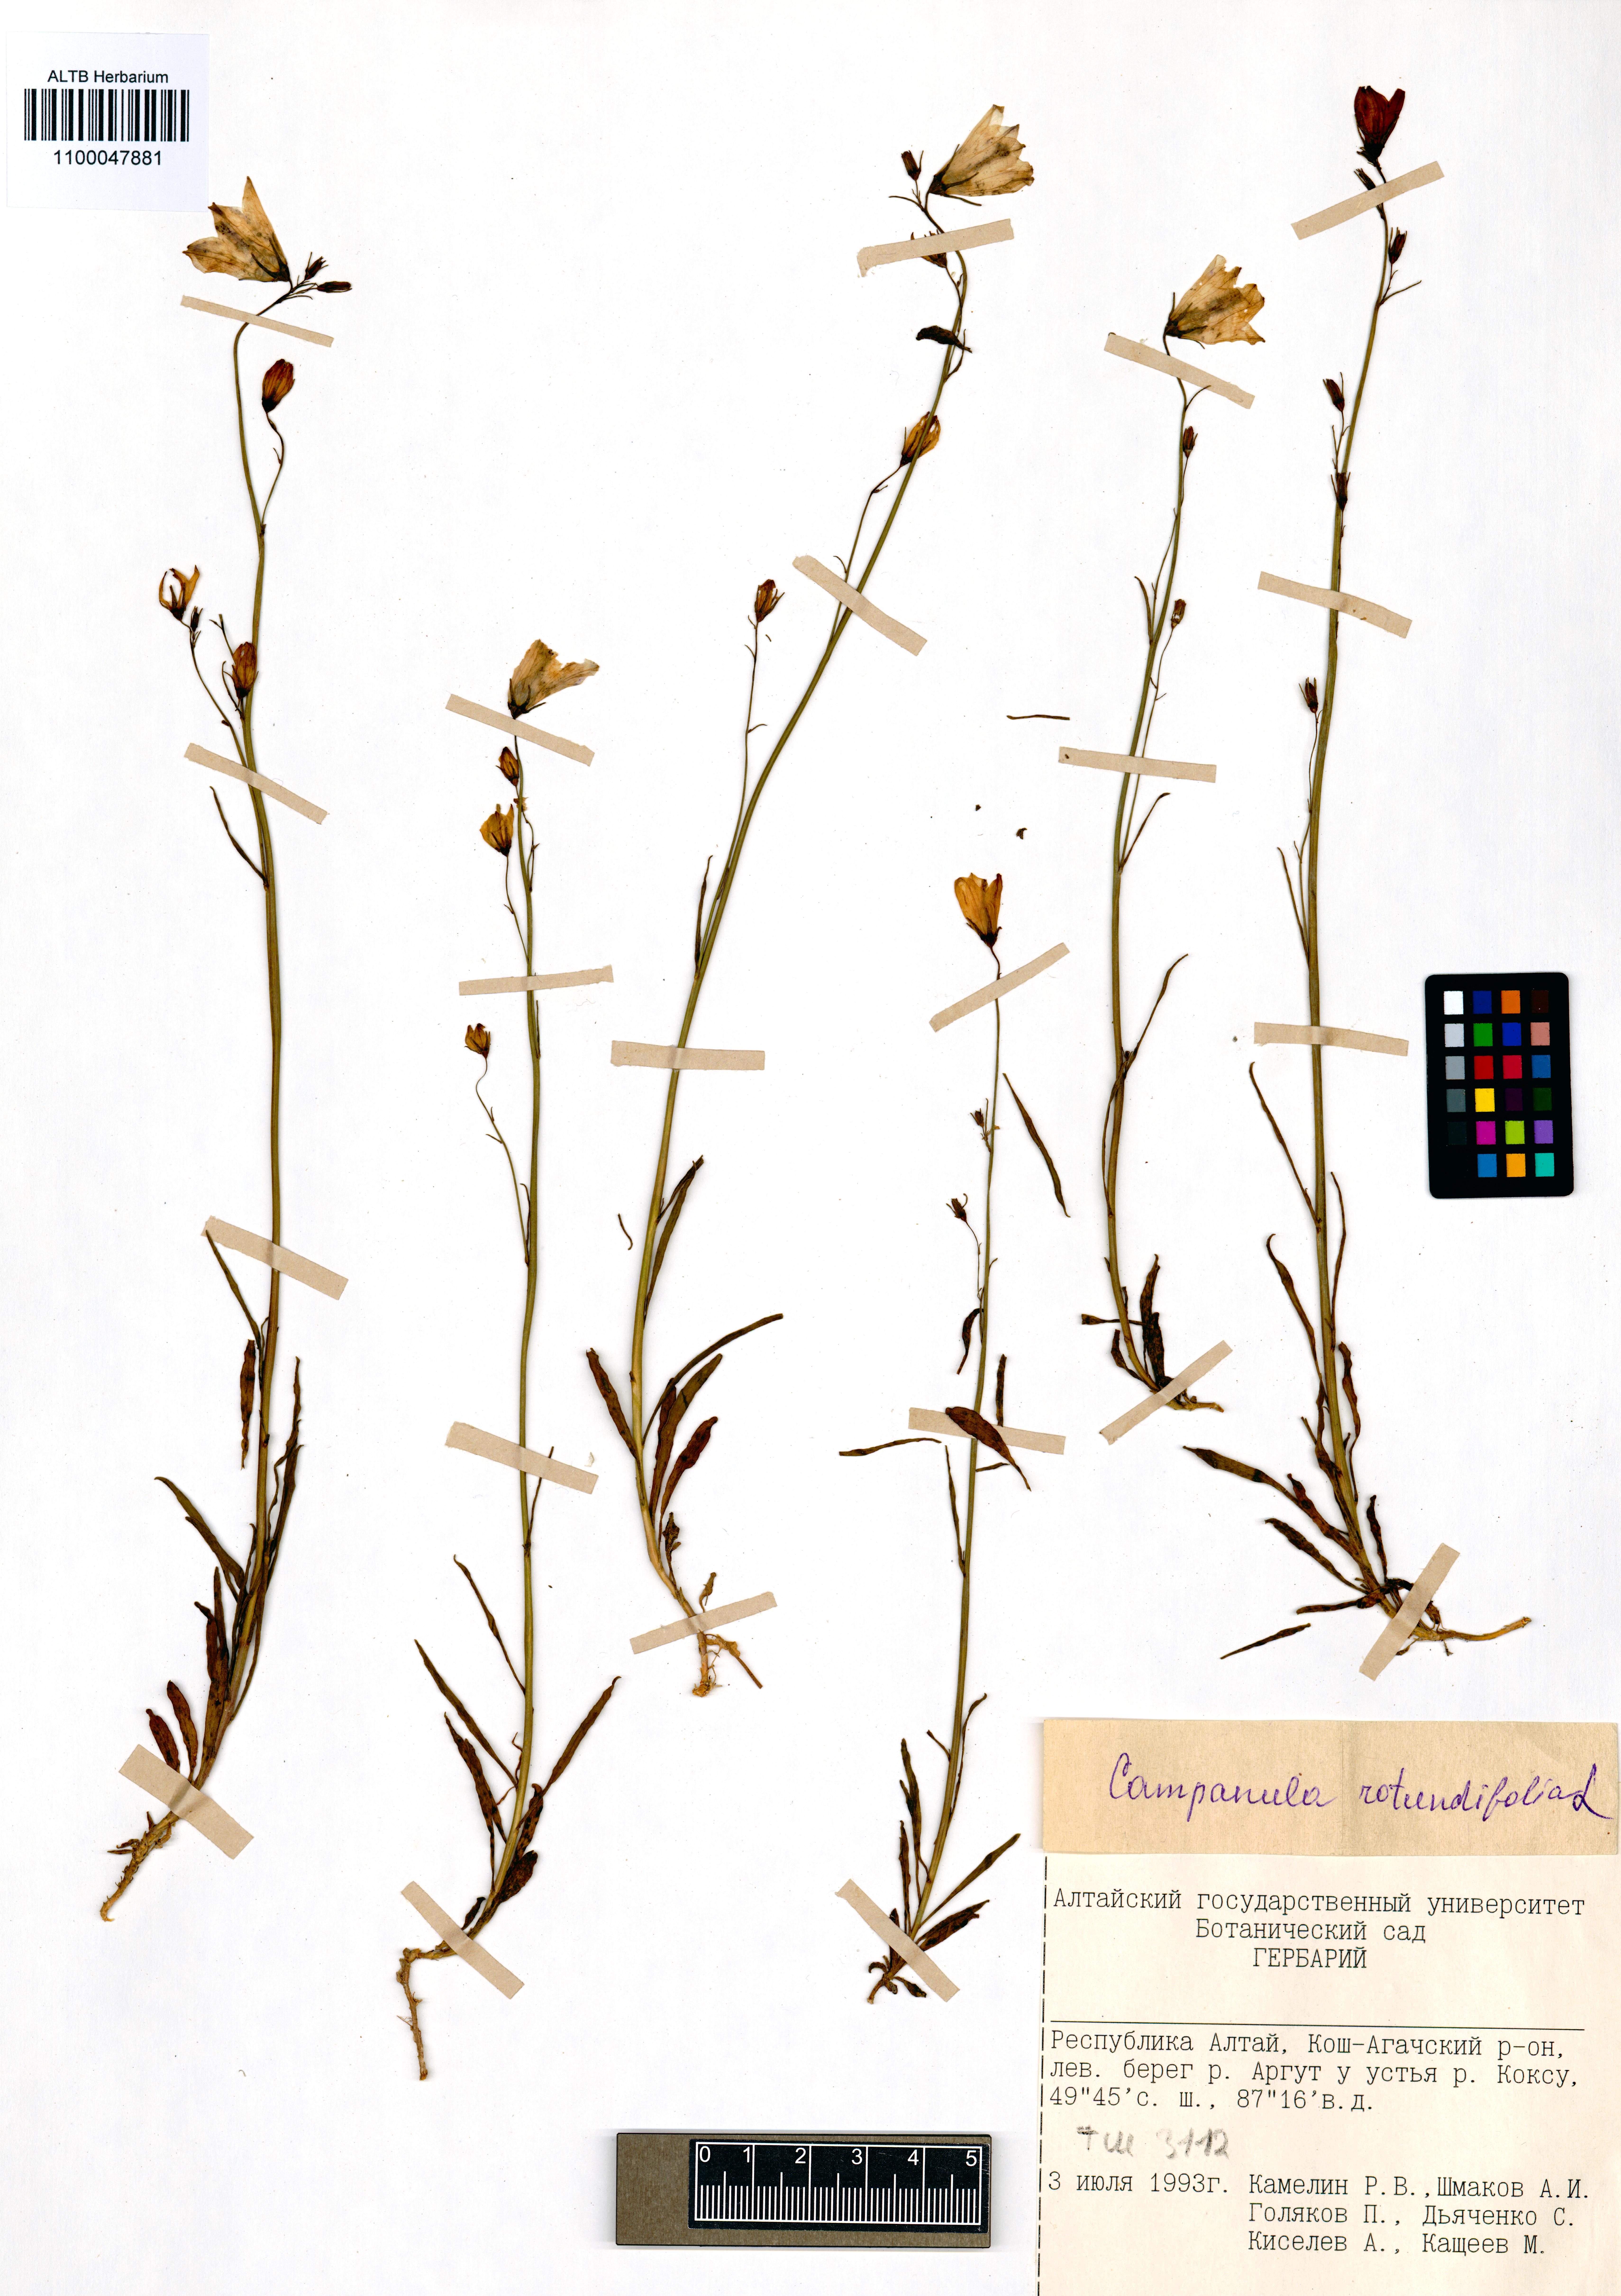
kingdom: Plantae
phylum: Tracheophyta
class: Magnoliopsida
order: Asterales
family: Campanulaceae
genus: Campanula
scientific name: Campanula rotundifolia
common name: Harebell
